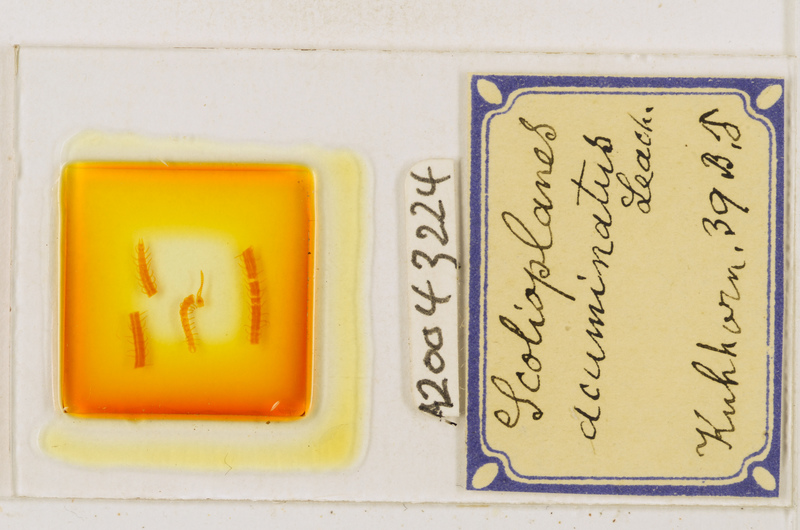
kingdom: Animalia
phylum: Arthropoda
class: Chilopoda
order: Geophilomorpha
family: Linotaeniidae
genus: Strigamia
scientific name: Strigamia acuminata
